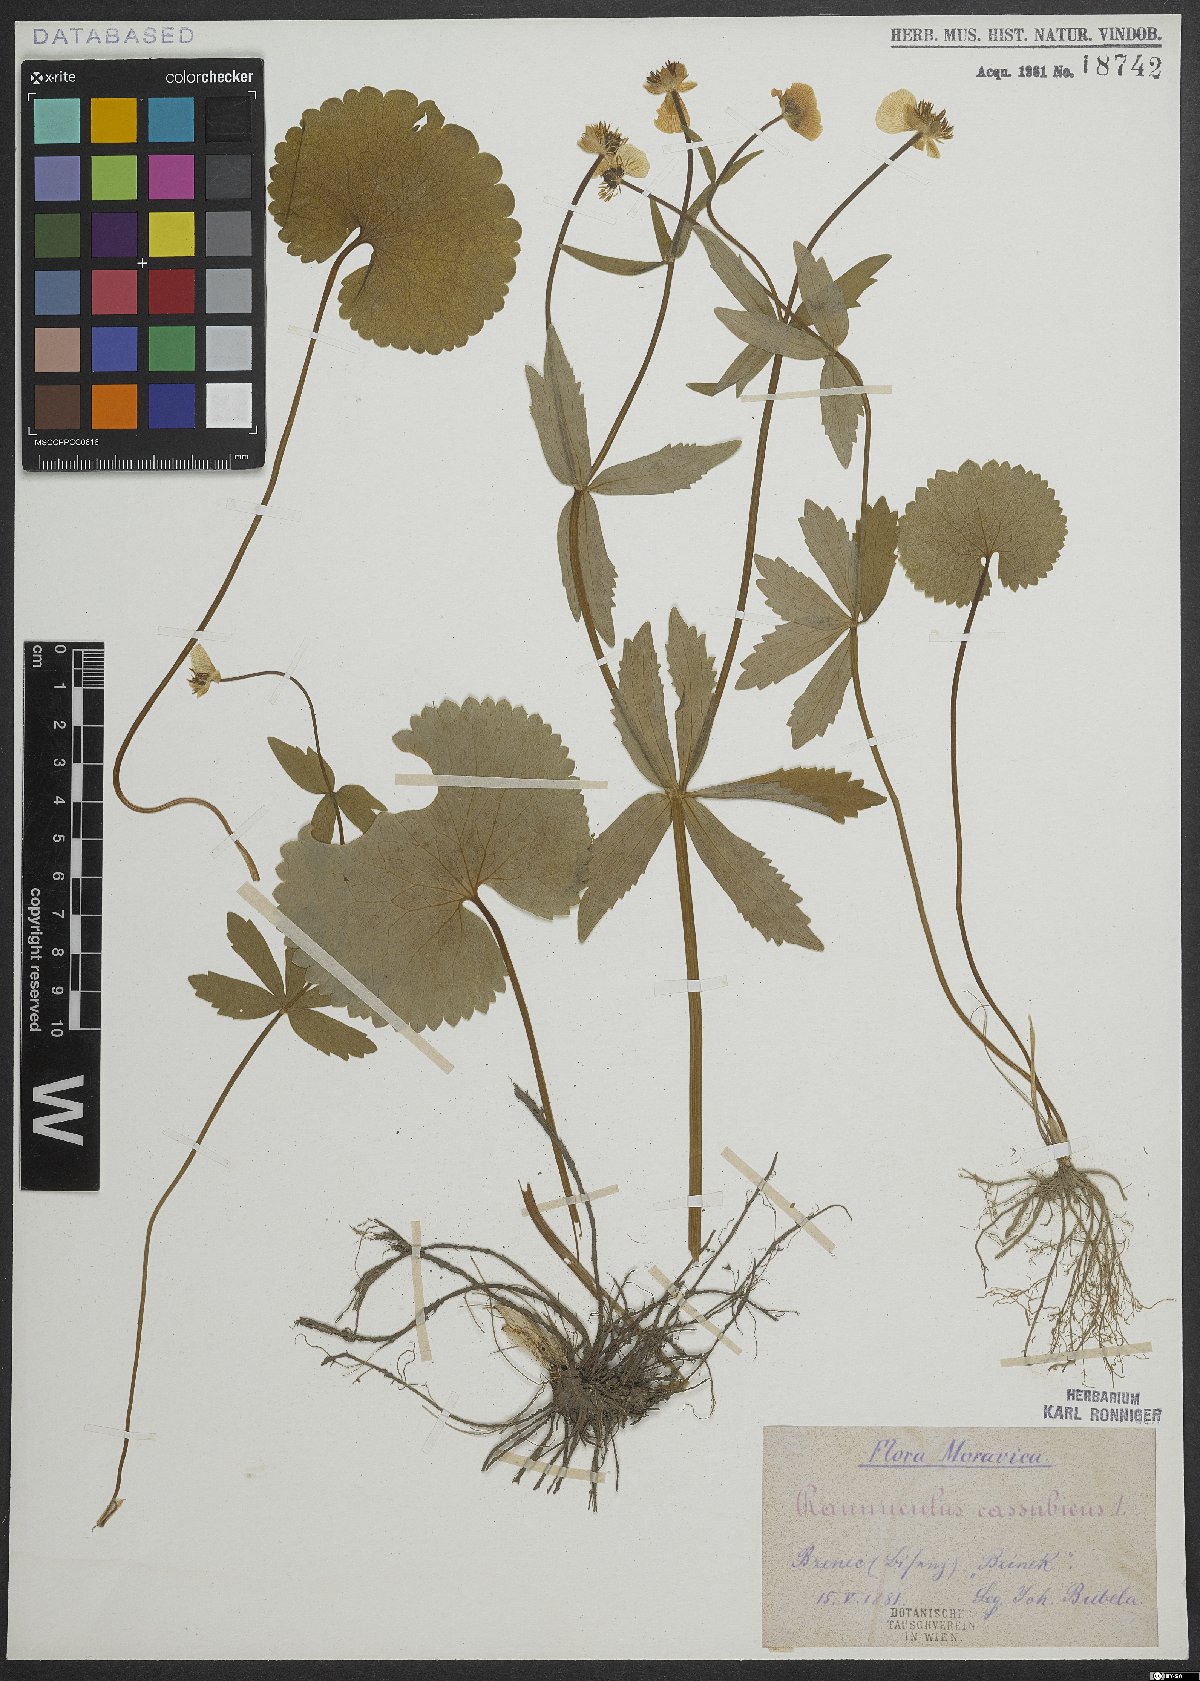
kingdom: Plantae
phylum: Tracheophyta
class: Magnoliopsida
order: Ranunculales
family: Ranunculaceae
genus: Ranunculus
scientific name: Ranunculus cassubicus
